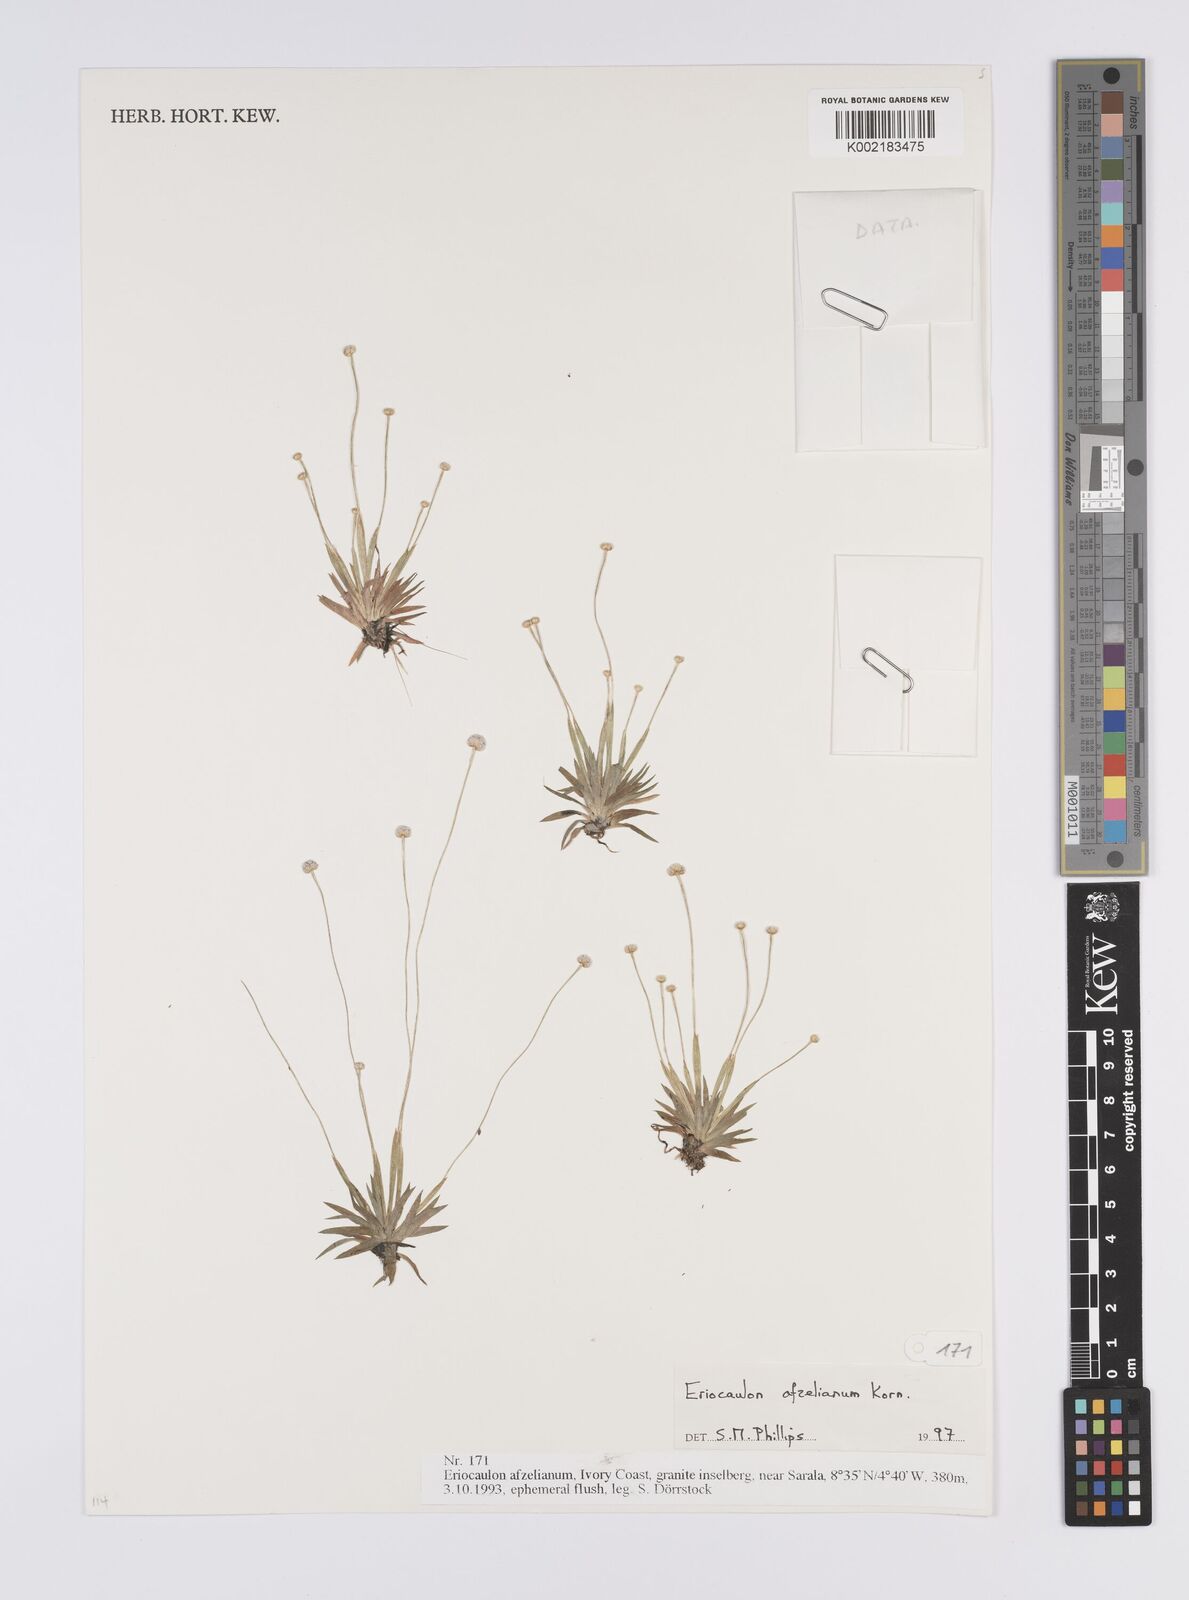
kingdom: Plantae
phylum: Tracheophyta
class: Liliopsida
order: Poales
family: Eriocaulaceae
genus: Eriocaulon
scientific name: Eriocaulon afzelianum
